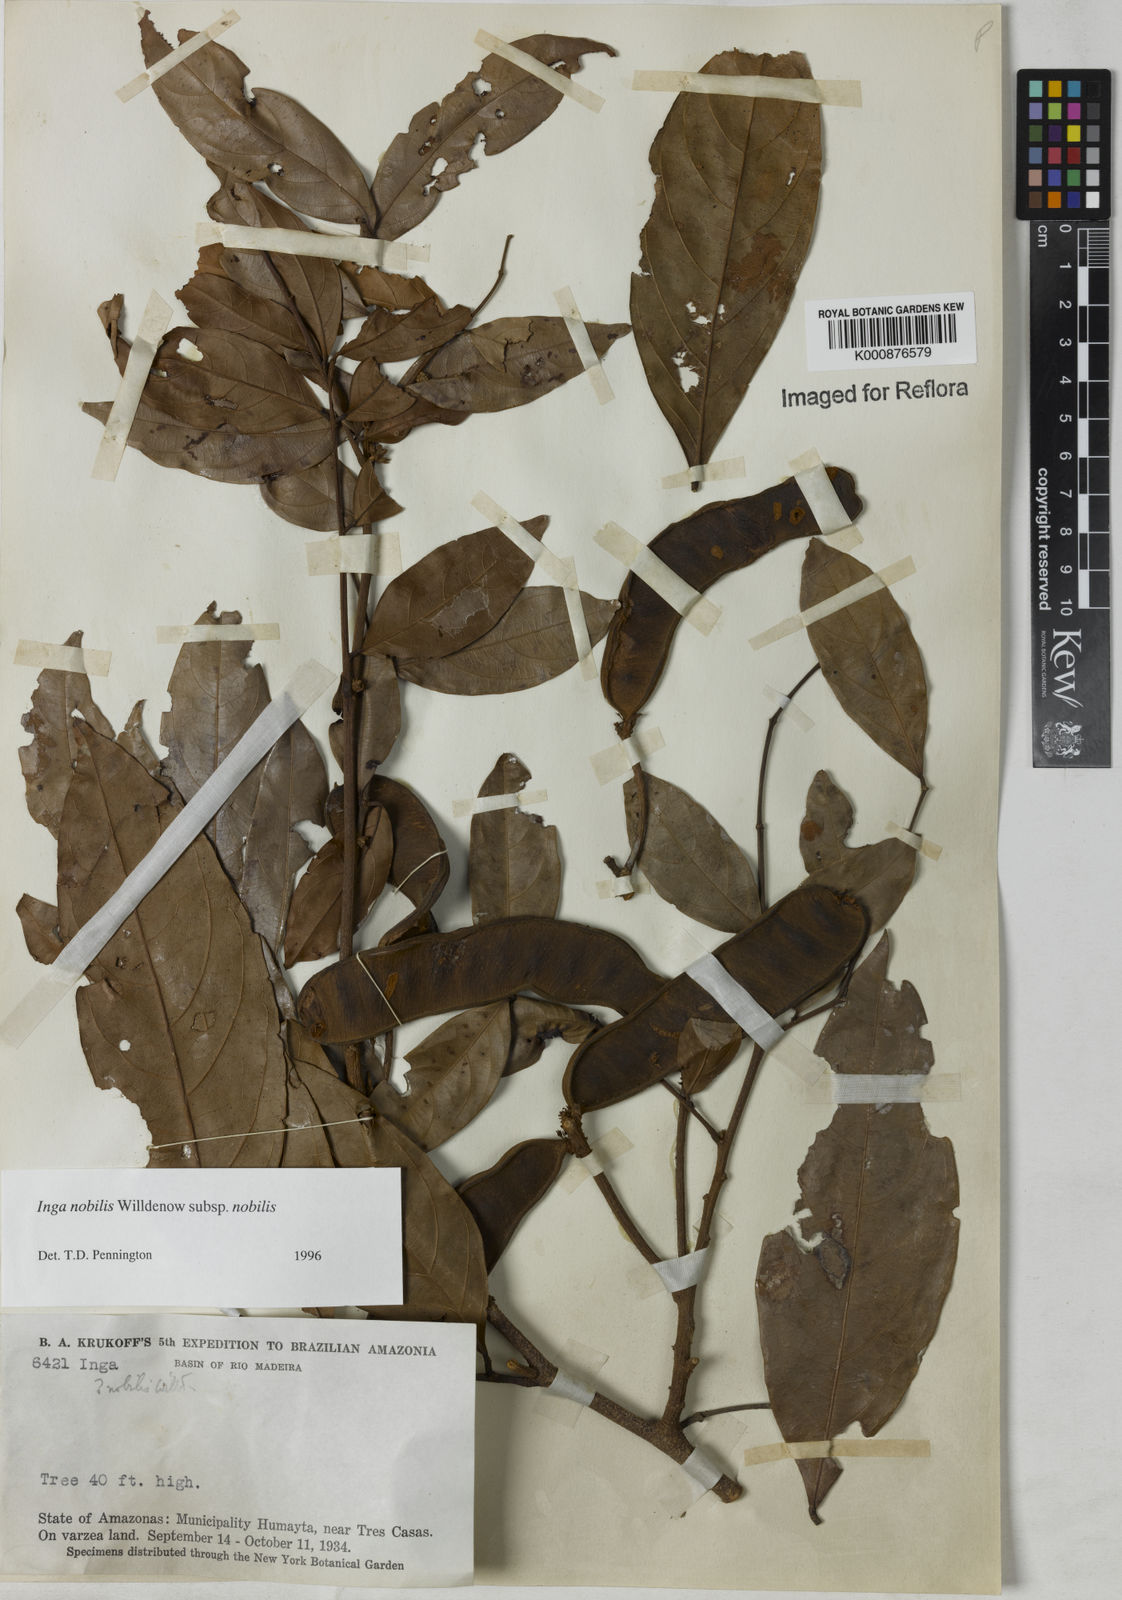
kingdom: Plantae
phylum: Tracheophyta
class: Magnoliopsida
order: Fabales
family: Fabaceae
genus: Inga
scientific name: Inga nobilis
